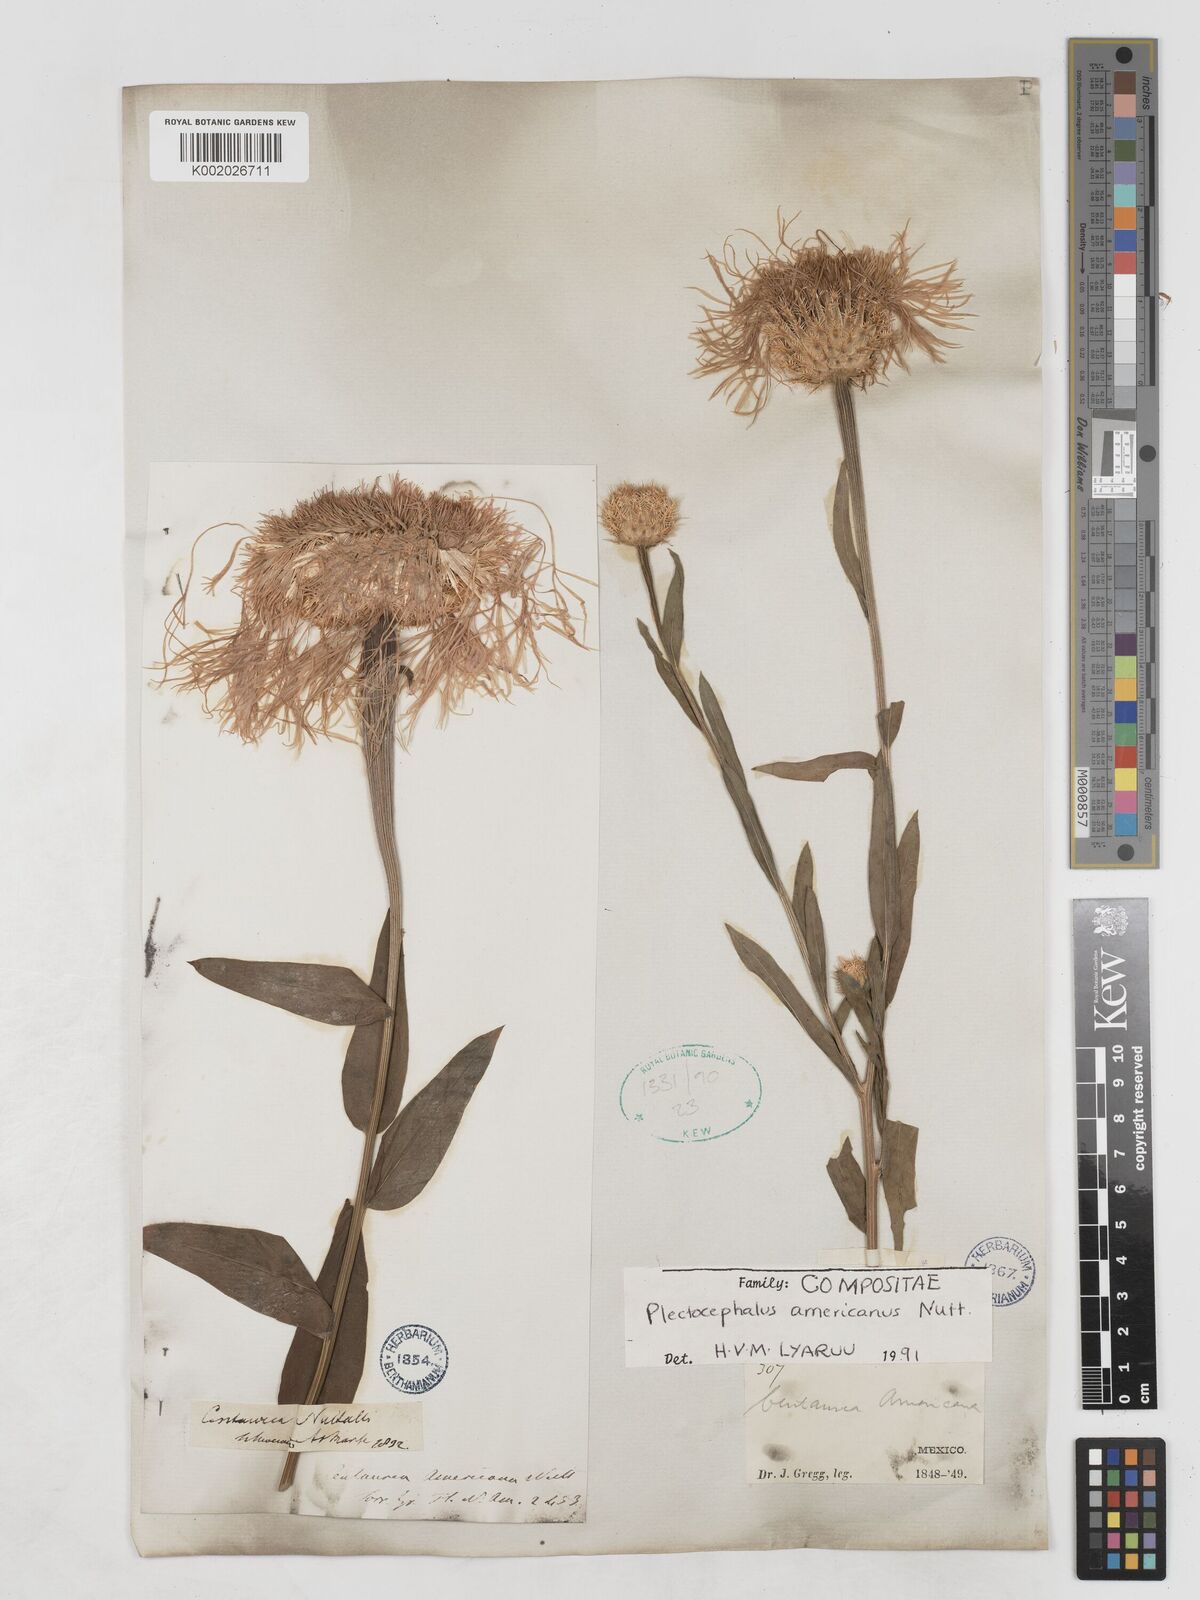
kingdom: Plantae
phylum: Tracheophyta
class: Magnoliopsida
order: Asterales
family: Asteraceae
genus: Plectocephalus
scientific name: Plectocephalus americanus
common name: American basket-flower
